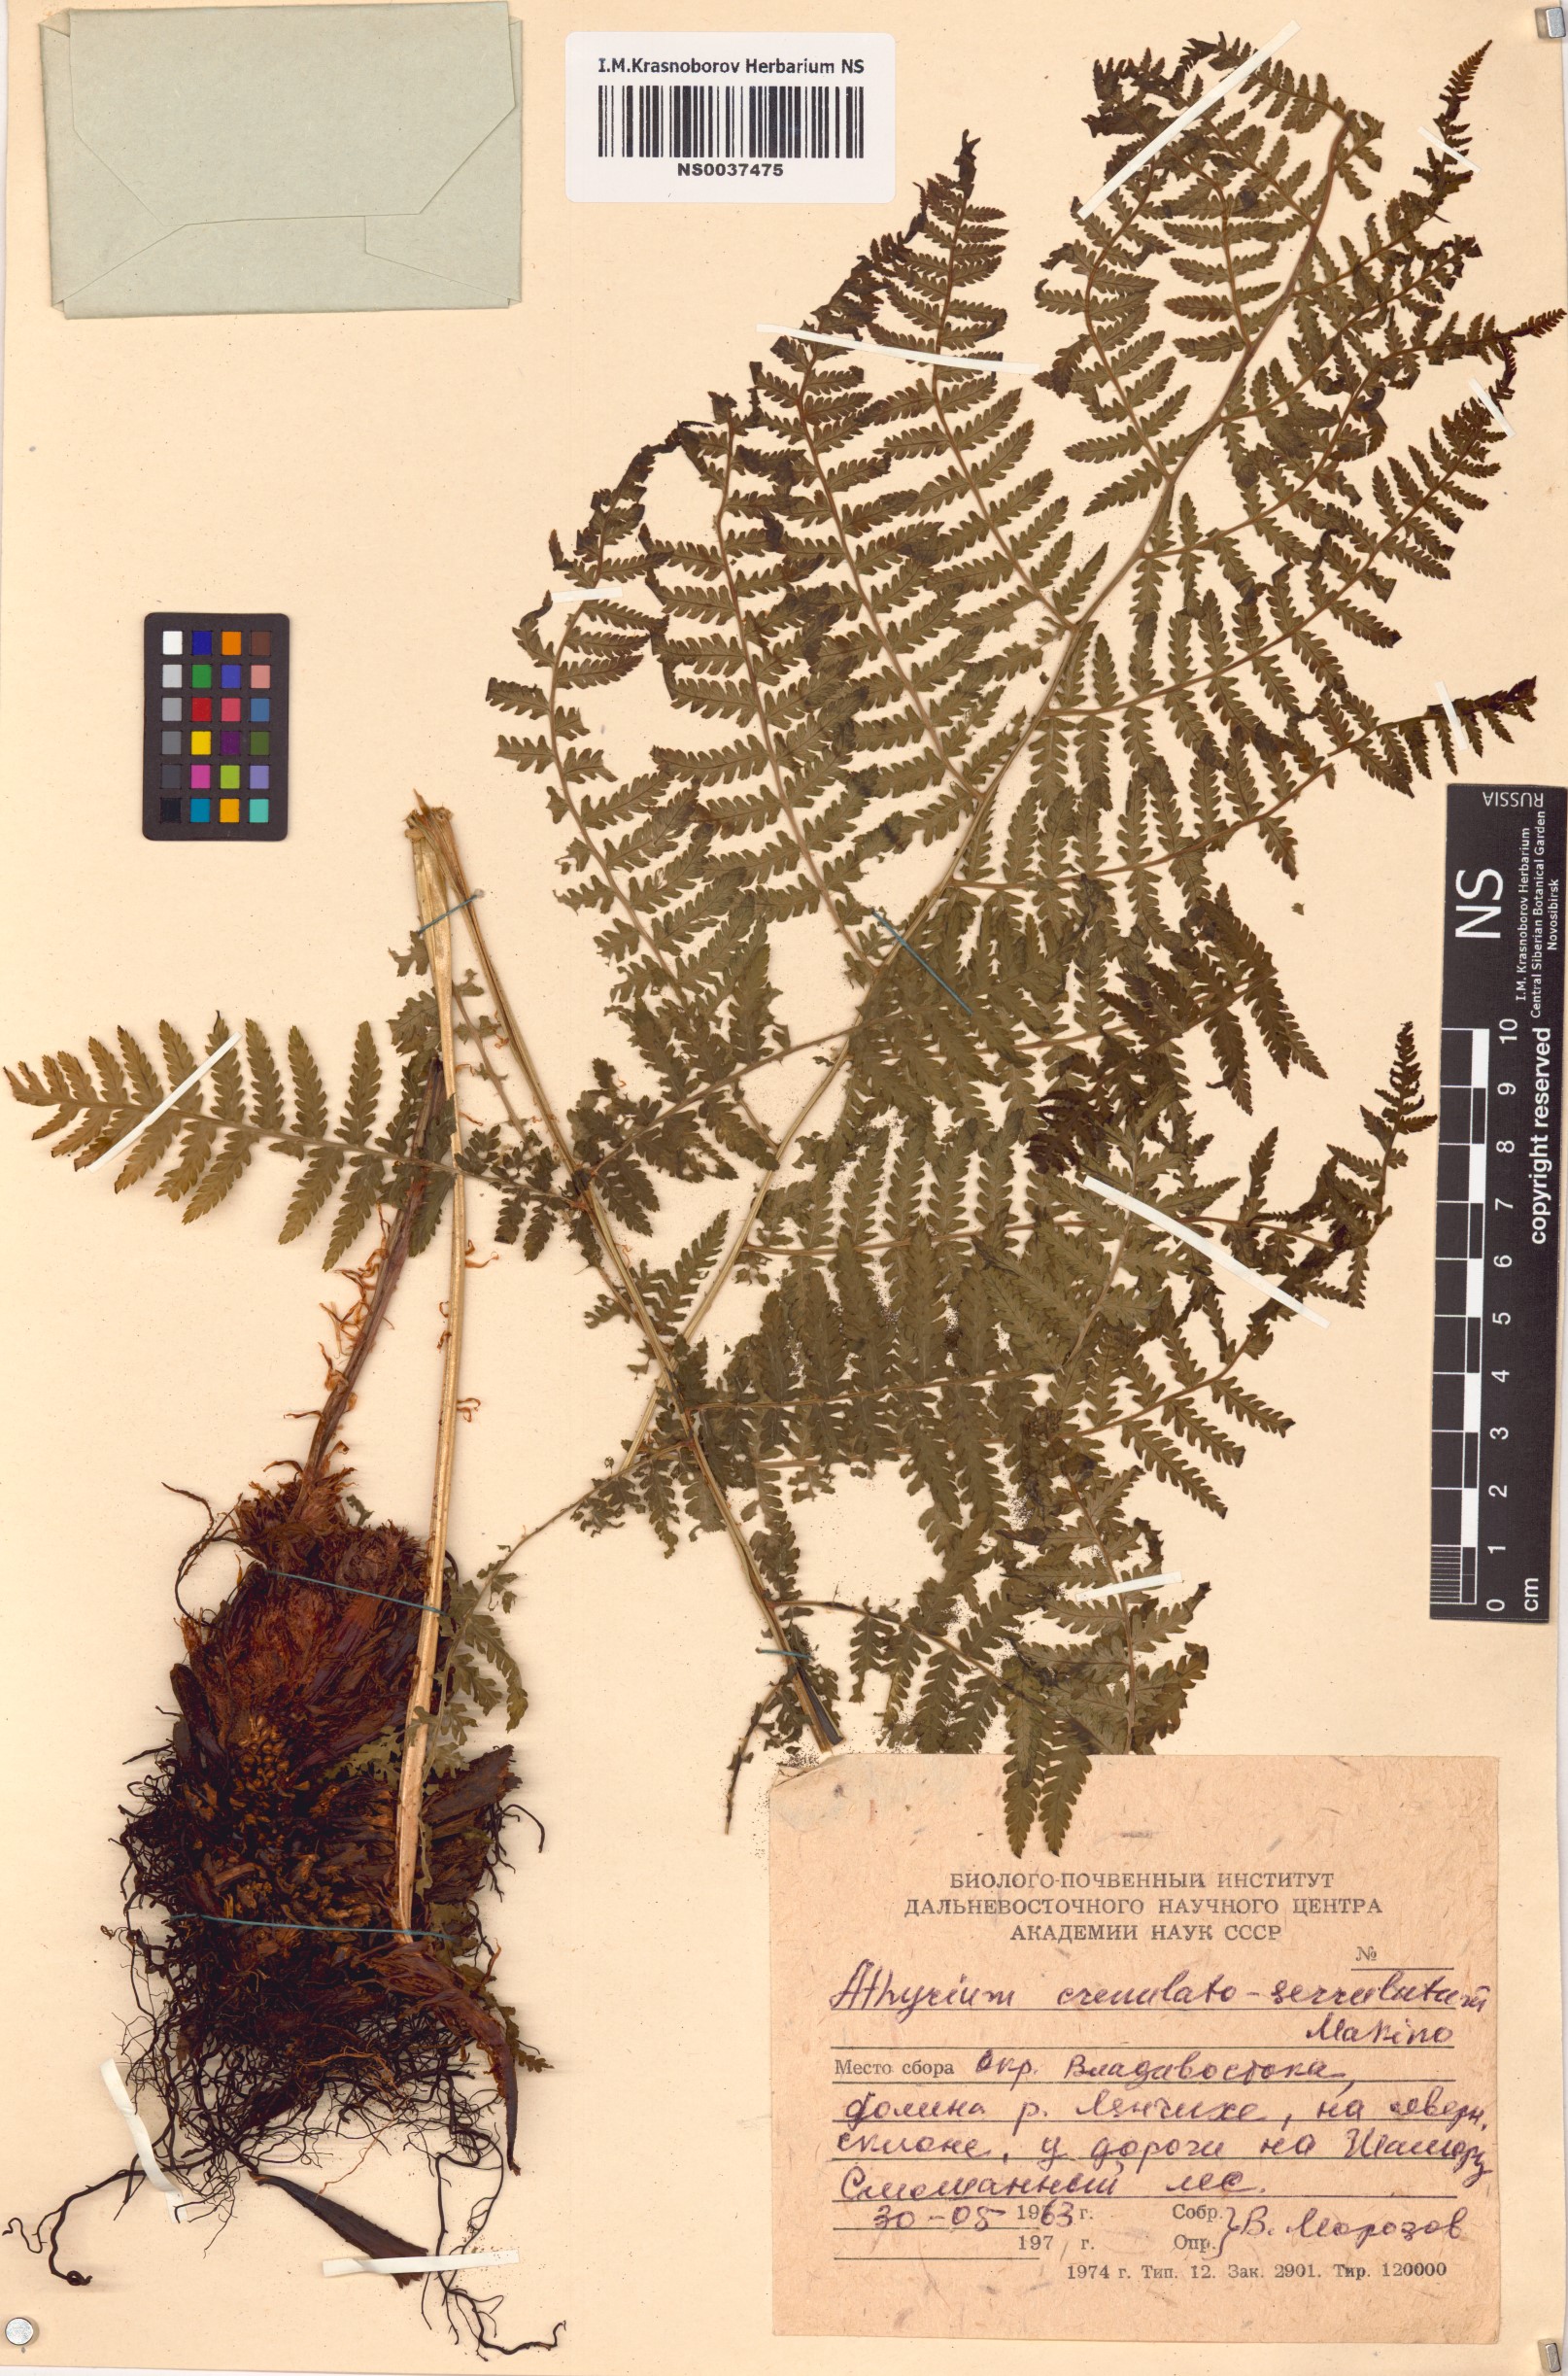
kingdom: Plantae
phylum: Tracheophyta
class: Polypodiopsida
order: Polypodiales
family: Athyriaceae
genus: Cornopteris
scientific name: Cornopteris crenulatoserrulata
